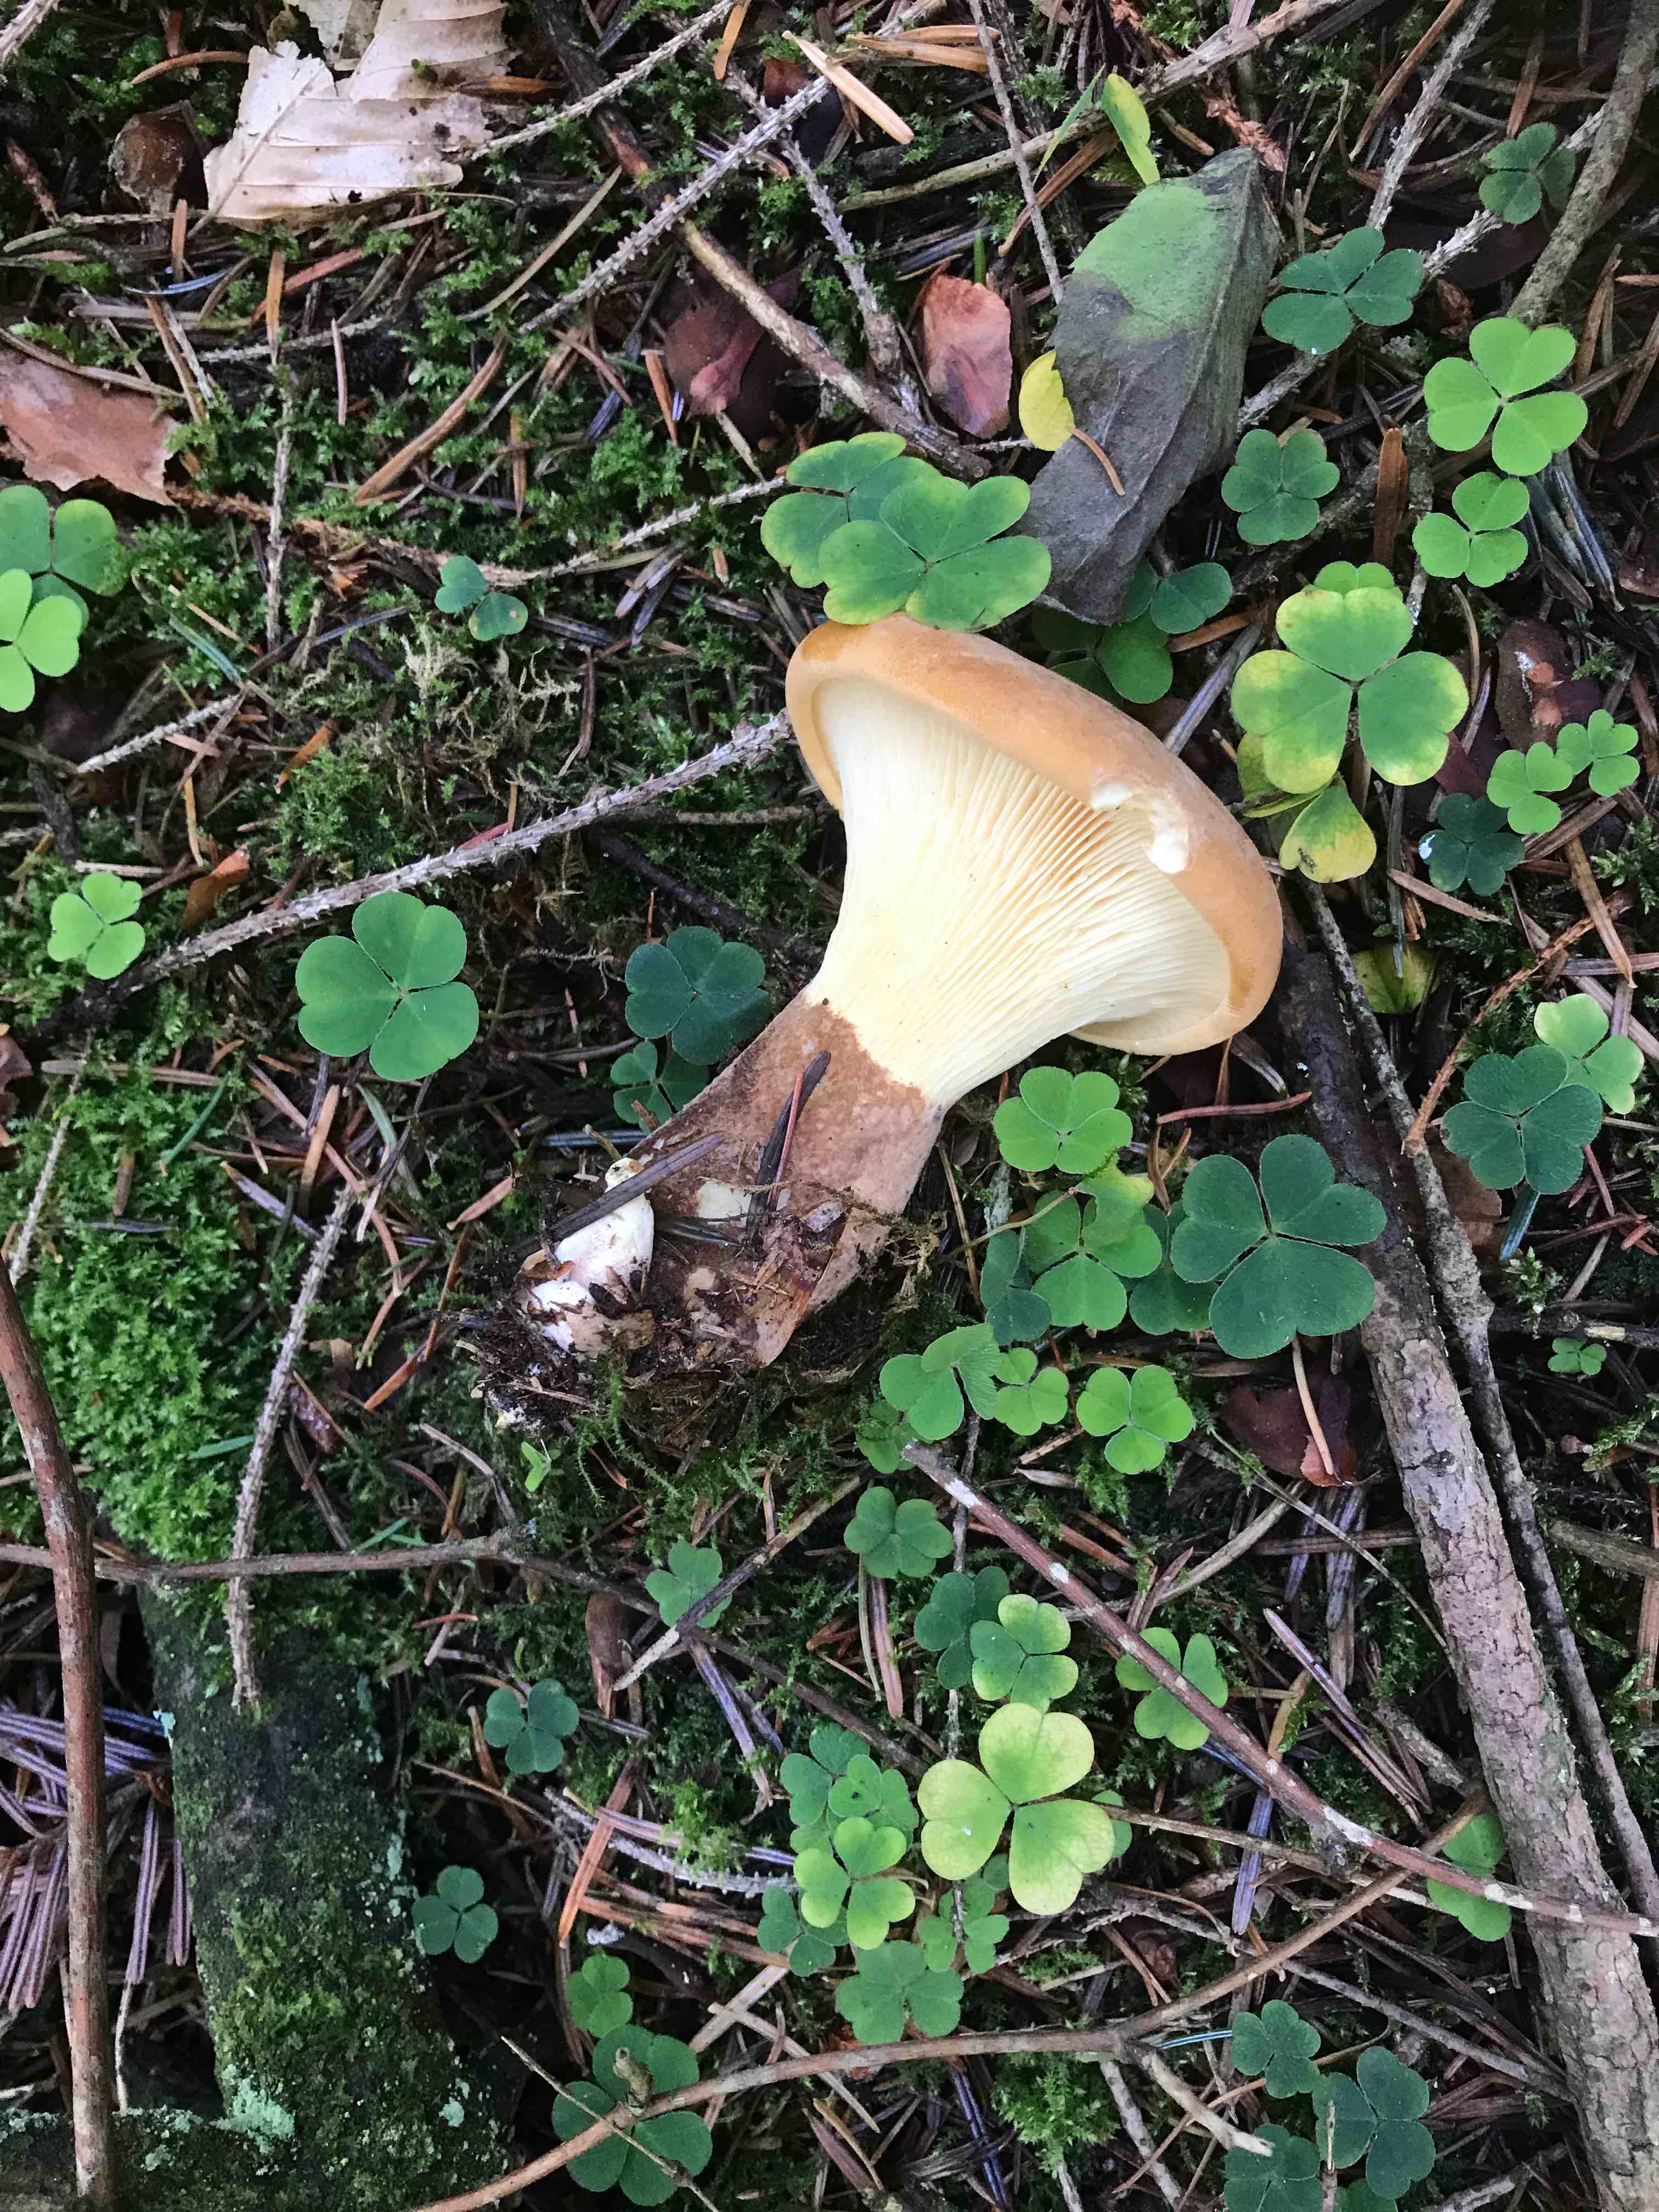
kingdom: Fungi
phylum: Basidiomycota
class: Agaricomycetes
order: Boletales
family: Tapinellaceae
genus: Tapinella
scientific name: Tapinella atrotomentosa
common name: sortfiltet viftesvamp
